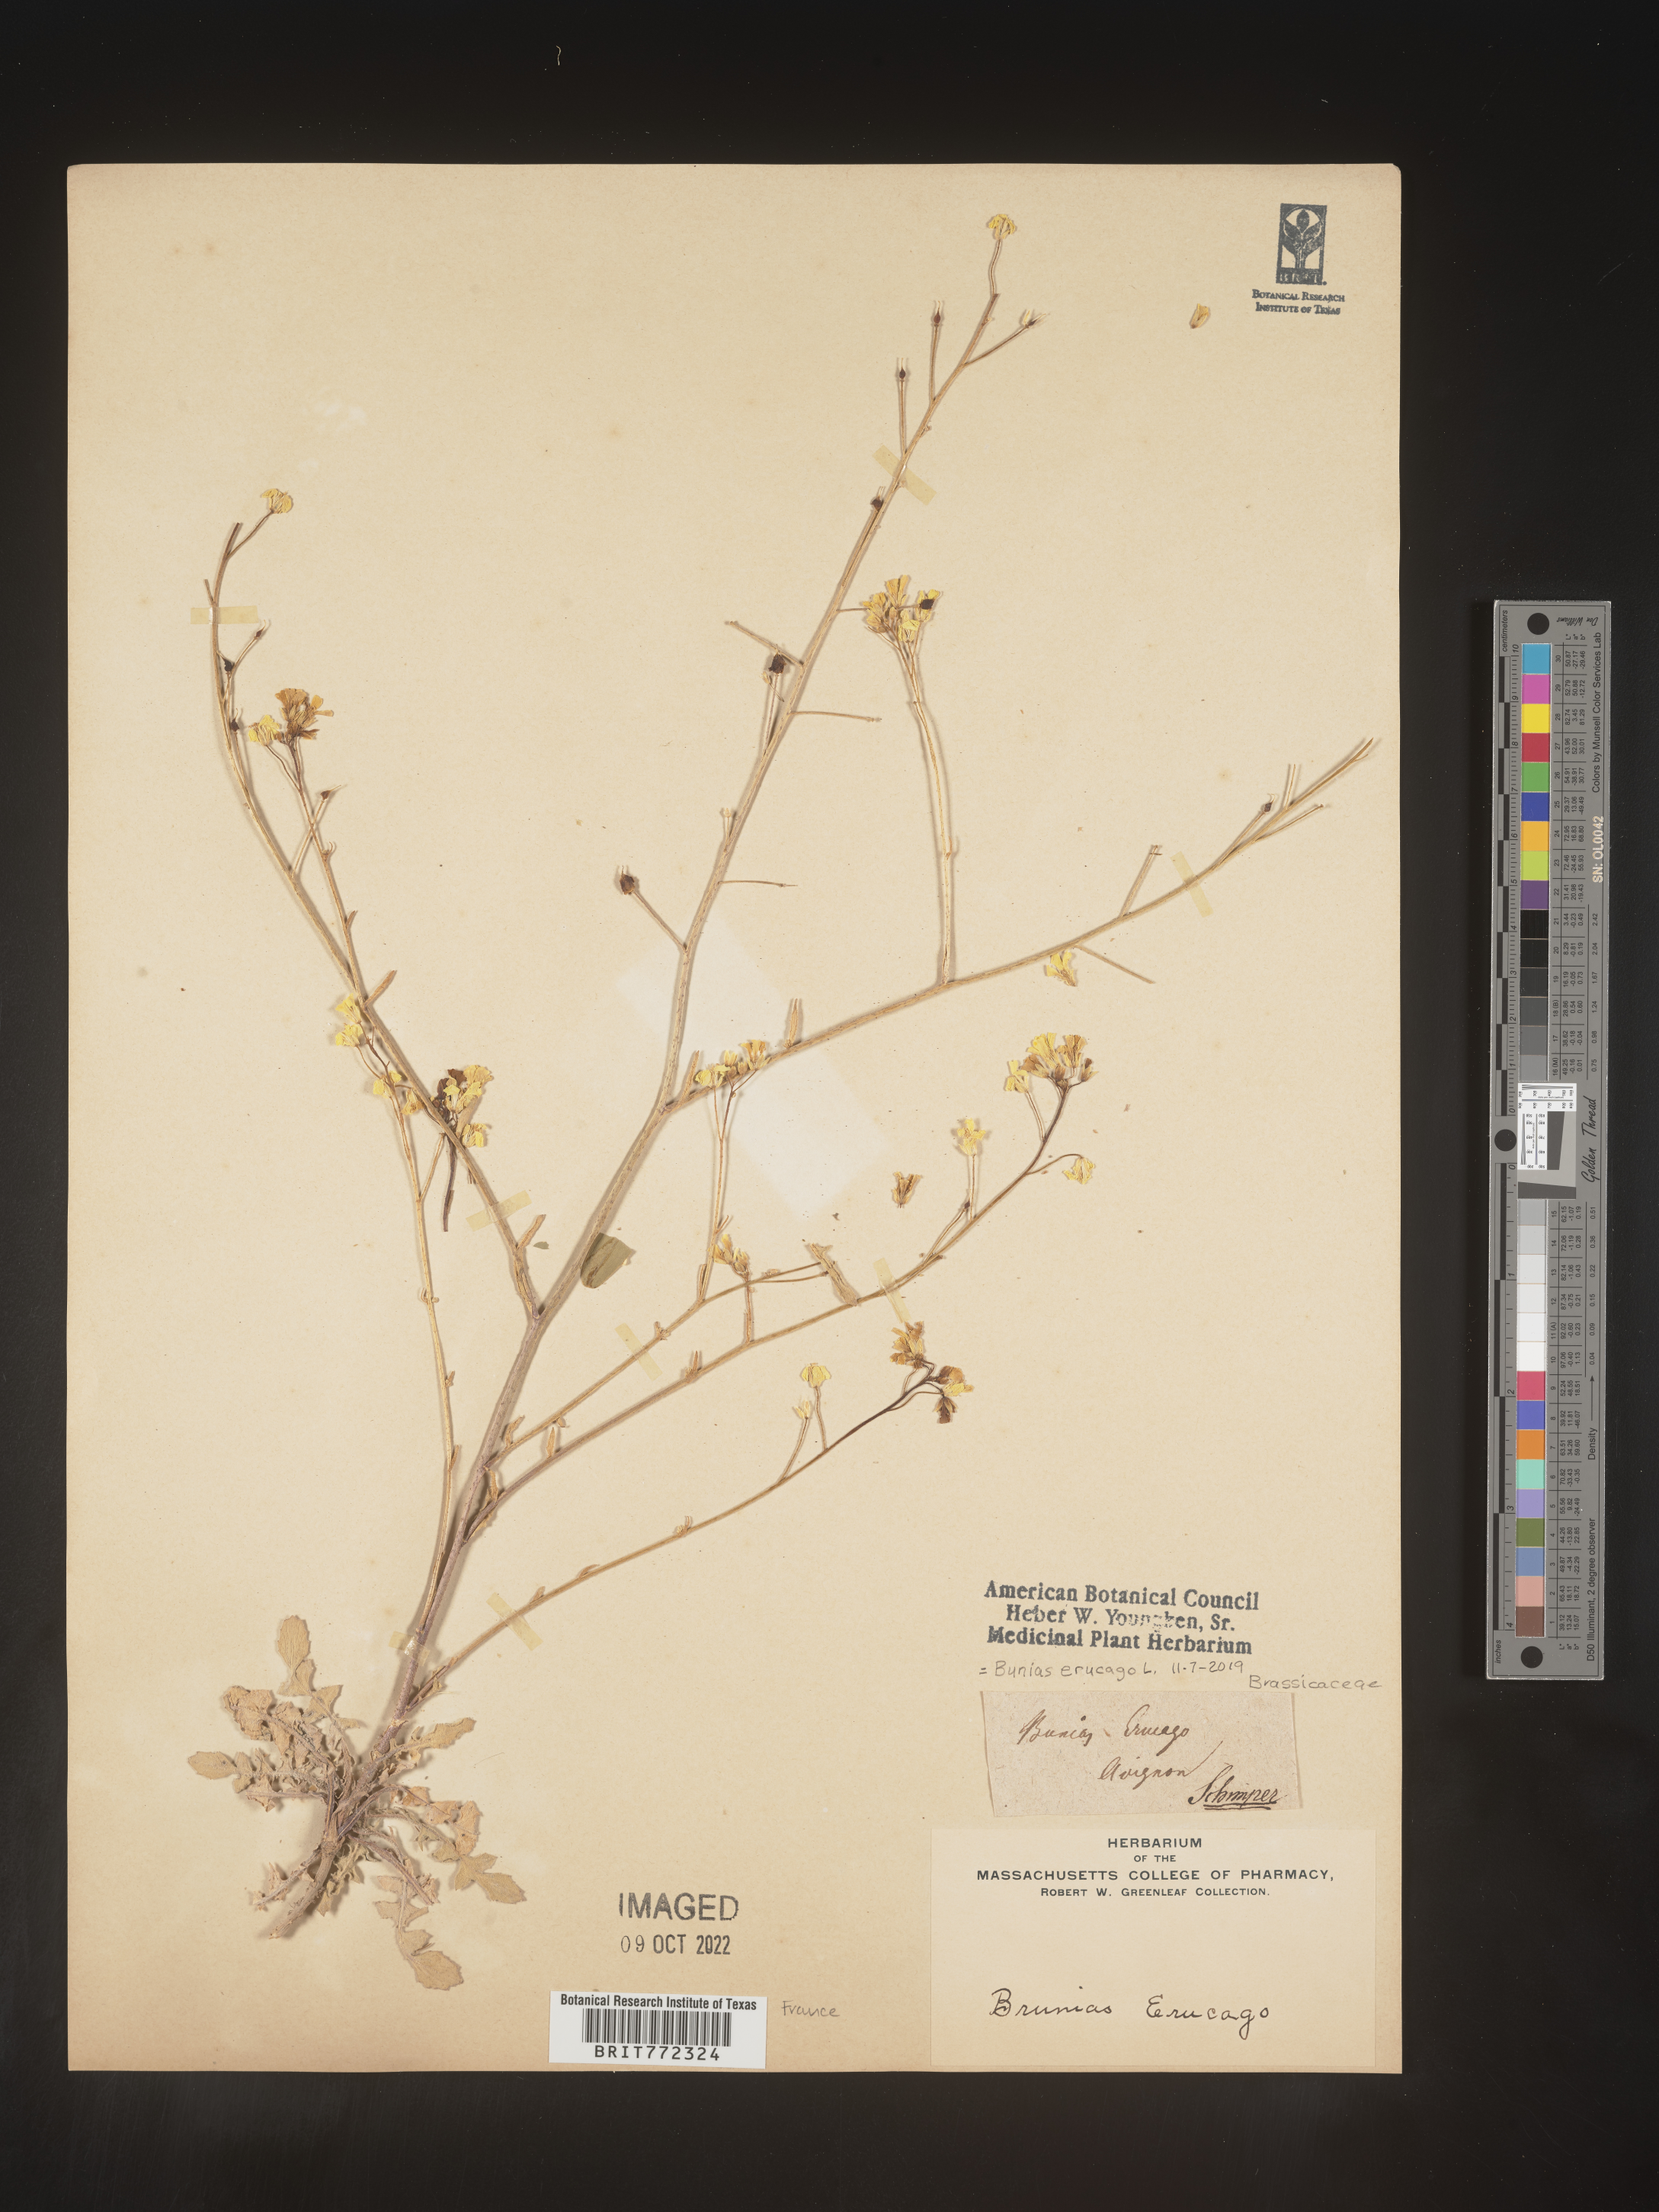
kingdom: Plantae
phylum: Tracheophyta
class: Magnoliopsida
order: Brassicales
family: Brassicaceae
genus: Bunias
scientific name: Bunias
